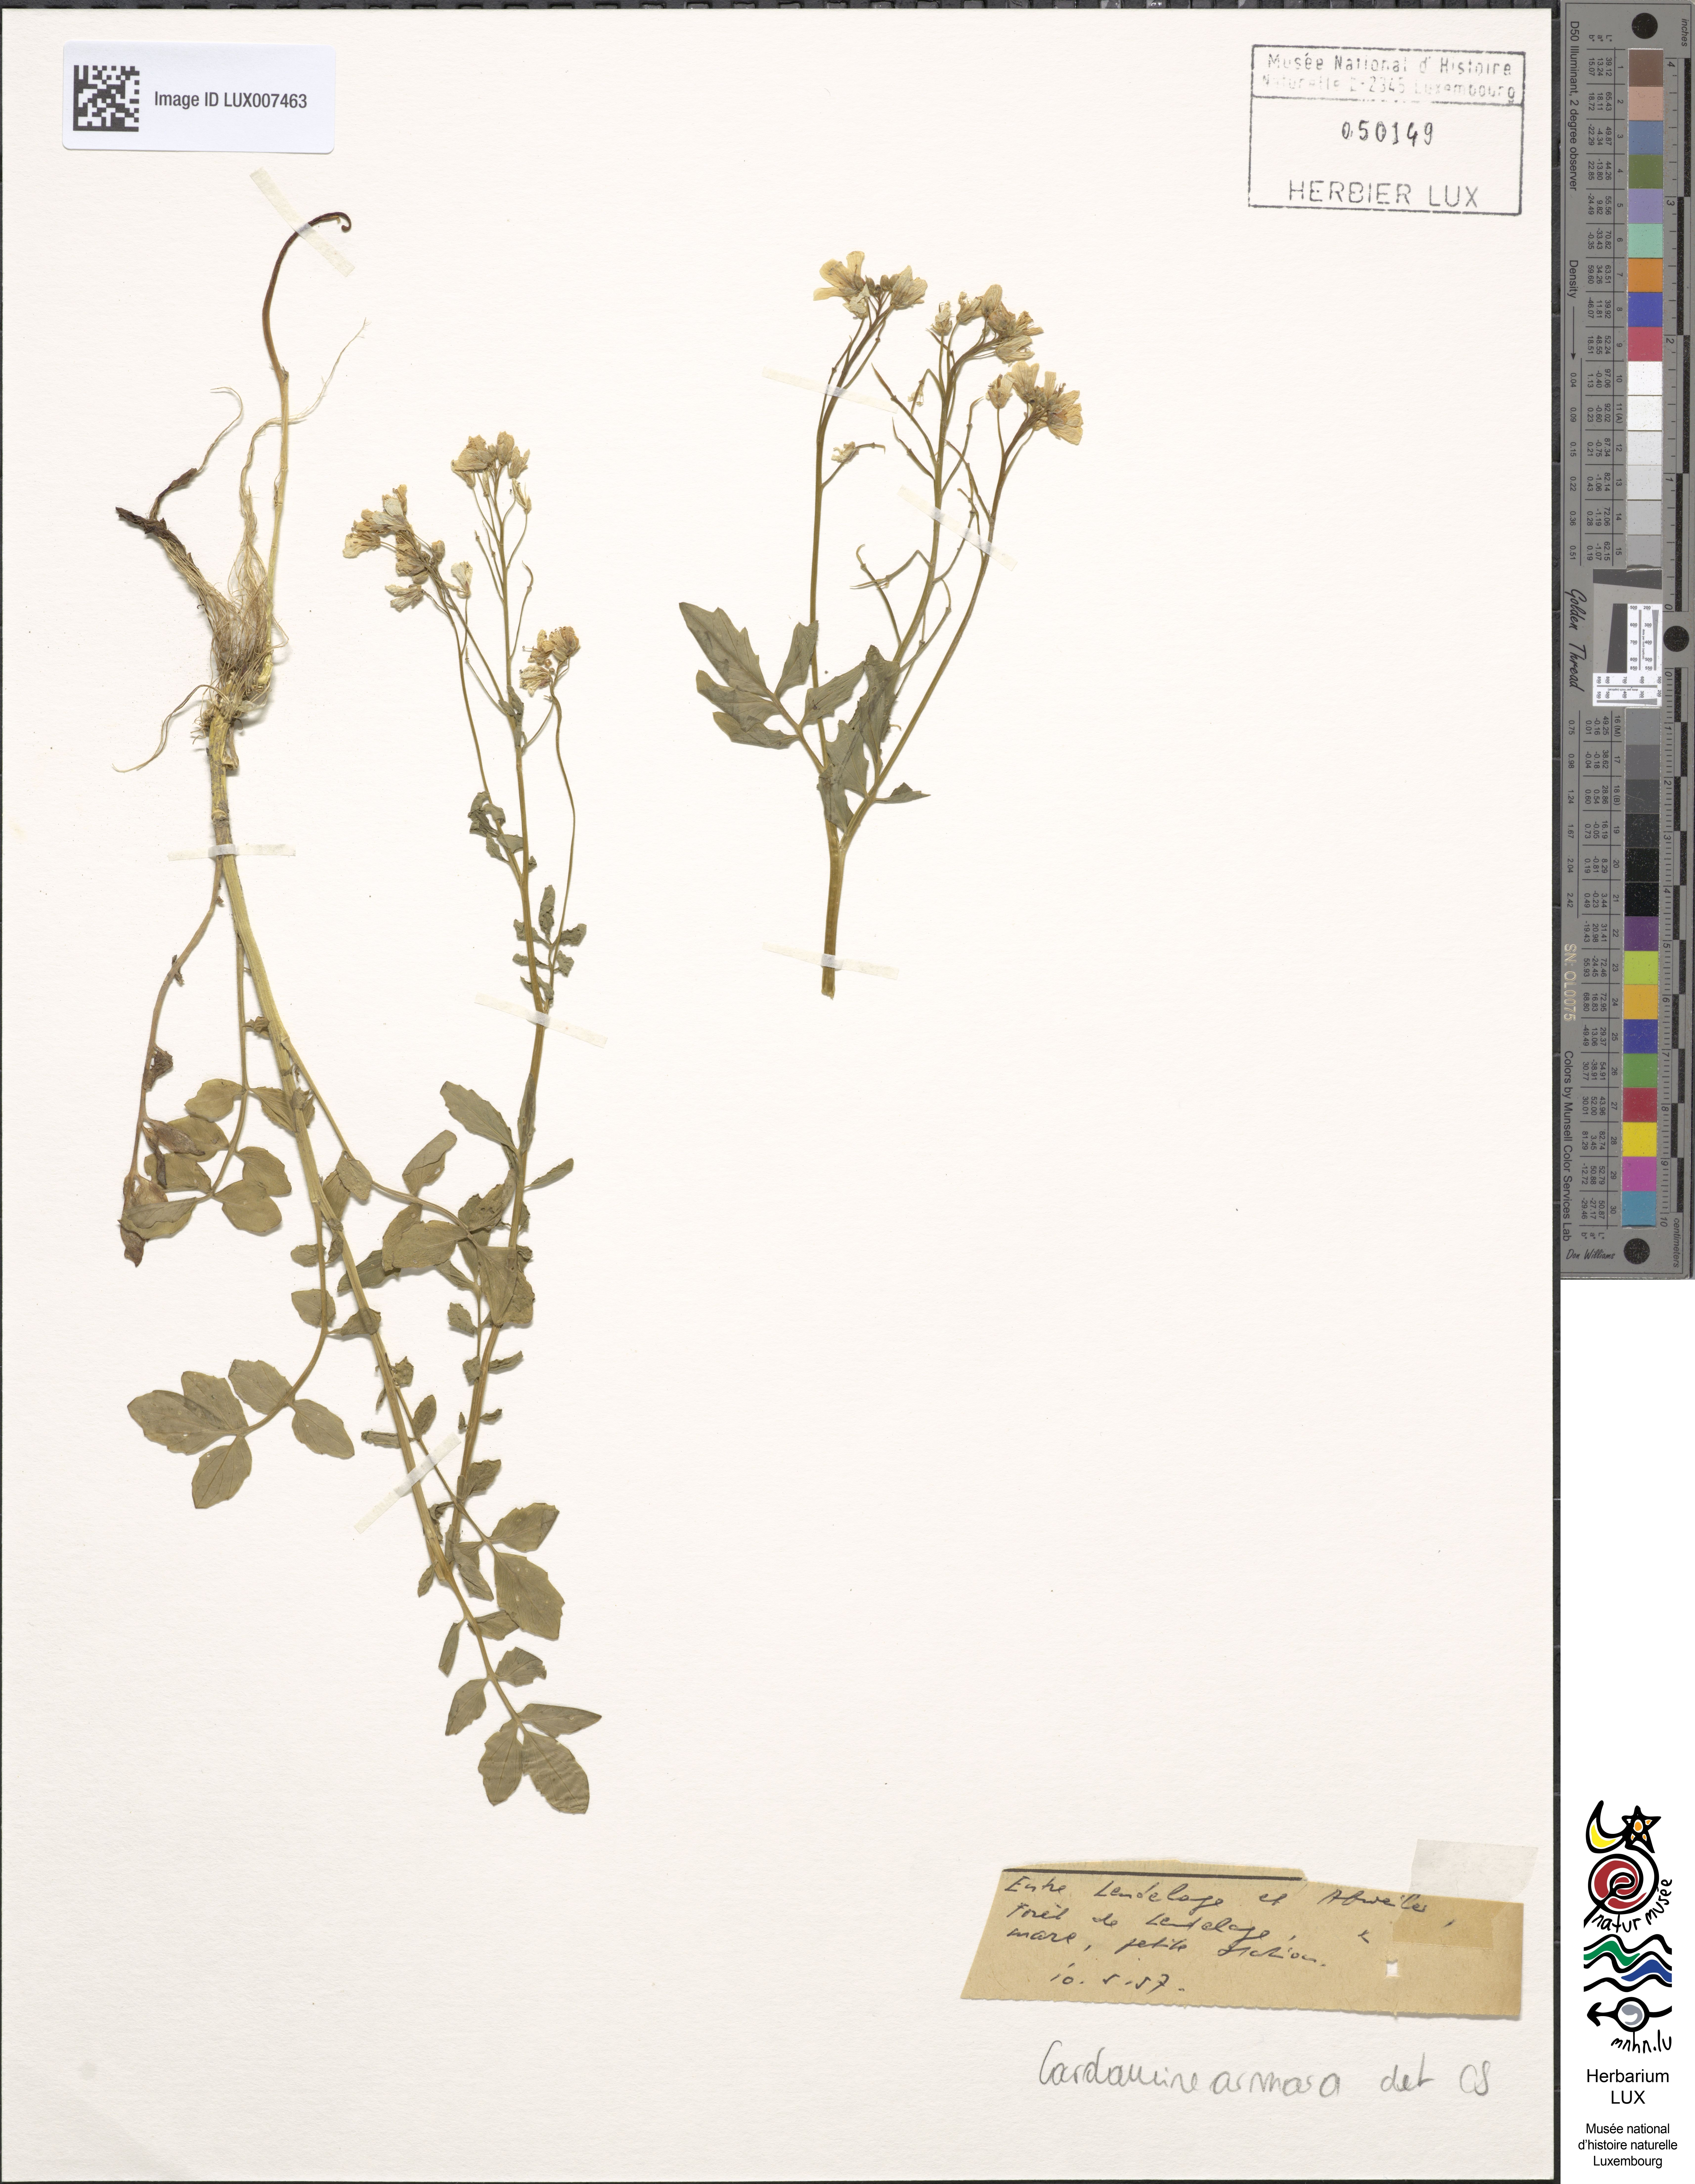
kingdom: Plantae
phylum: Tracheophyta
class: Magnoliopsida
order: Brassicales
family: Brassicaceae
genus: Cardamine
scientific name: Cardamine amara
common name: Large bitter-cress
